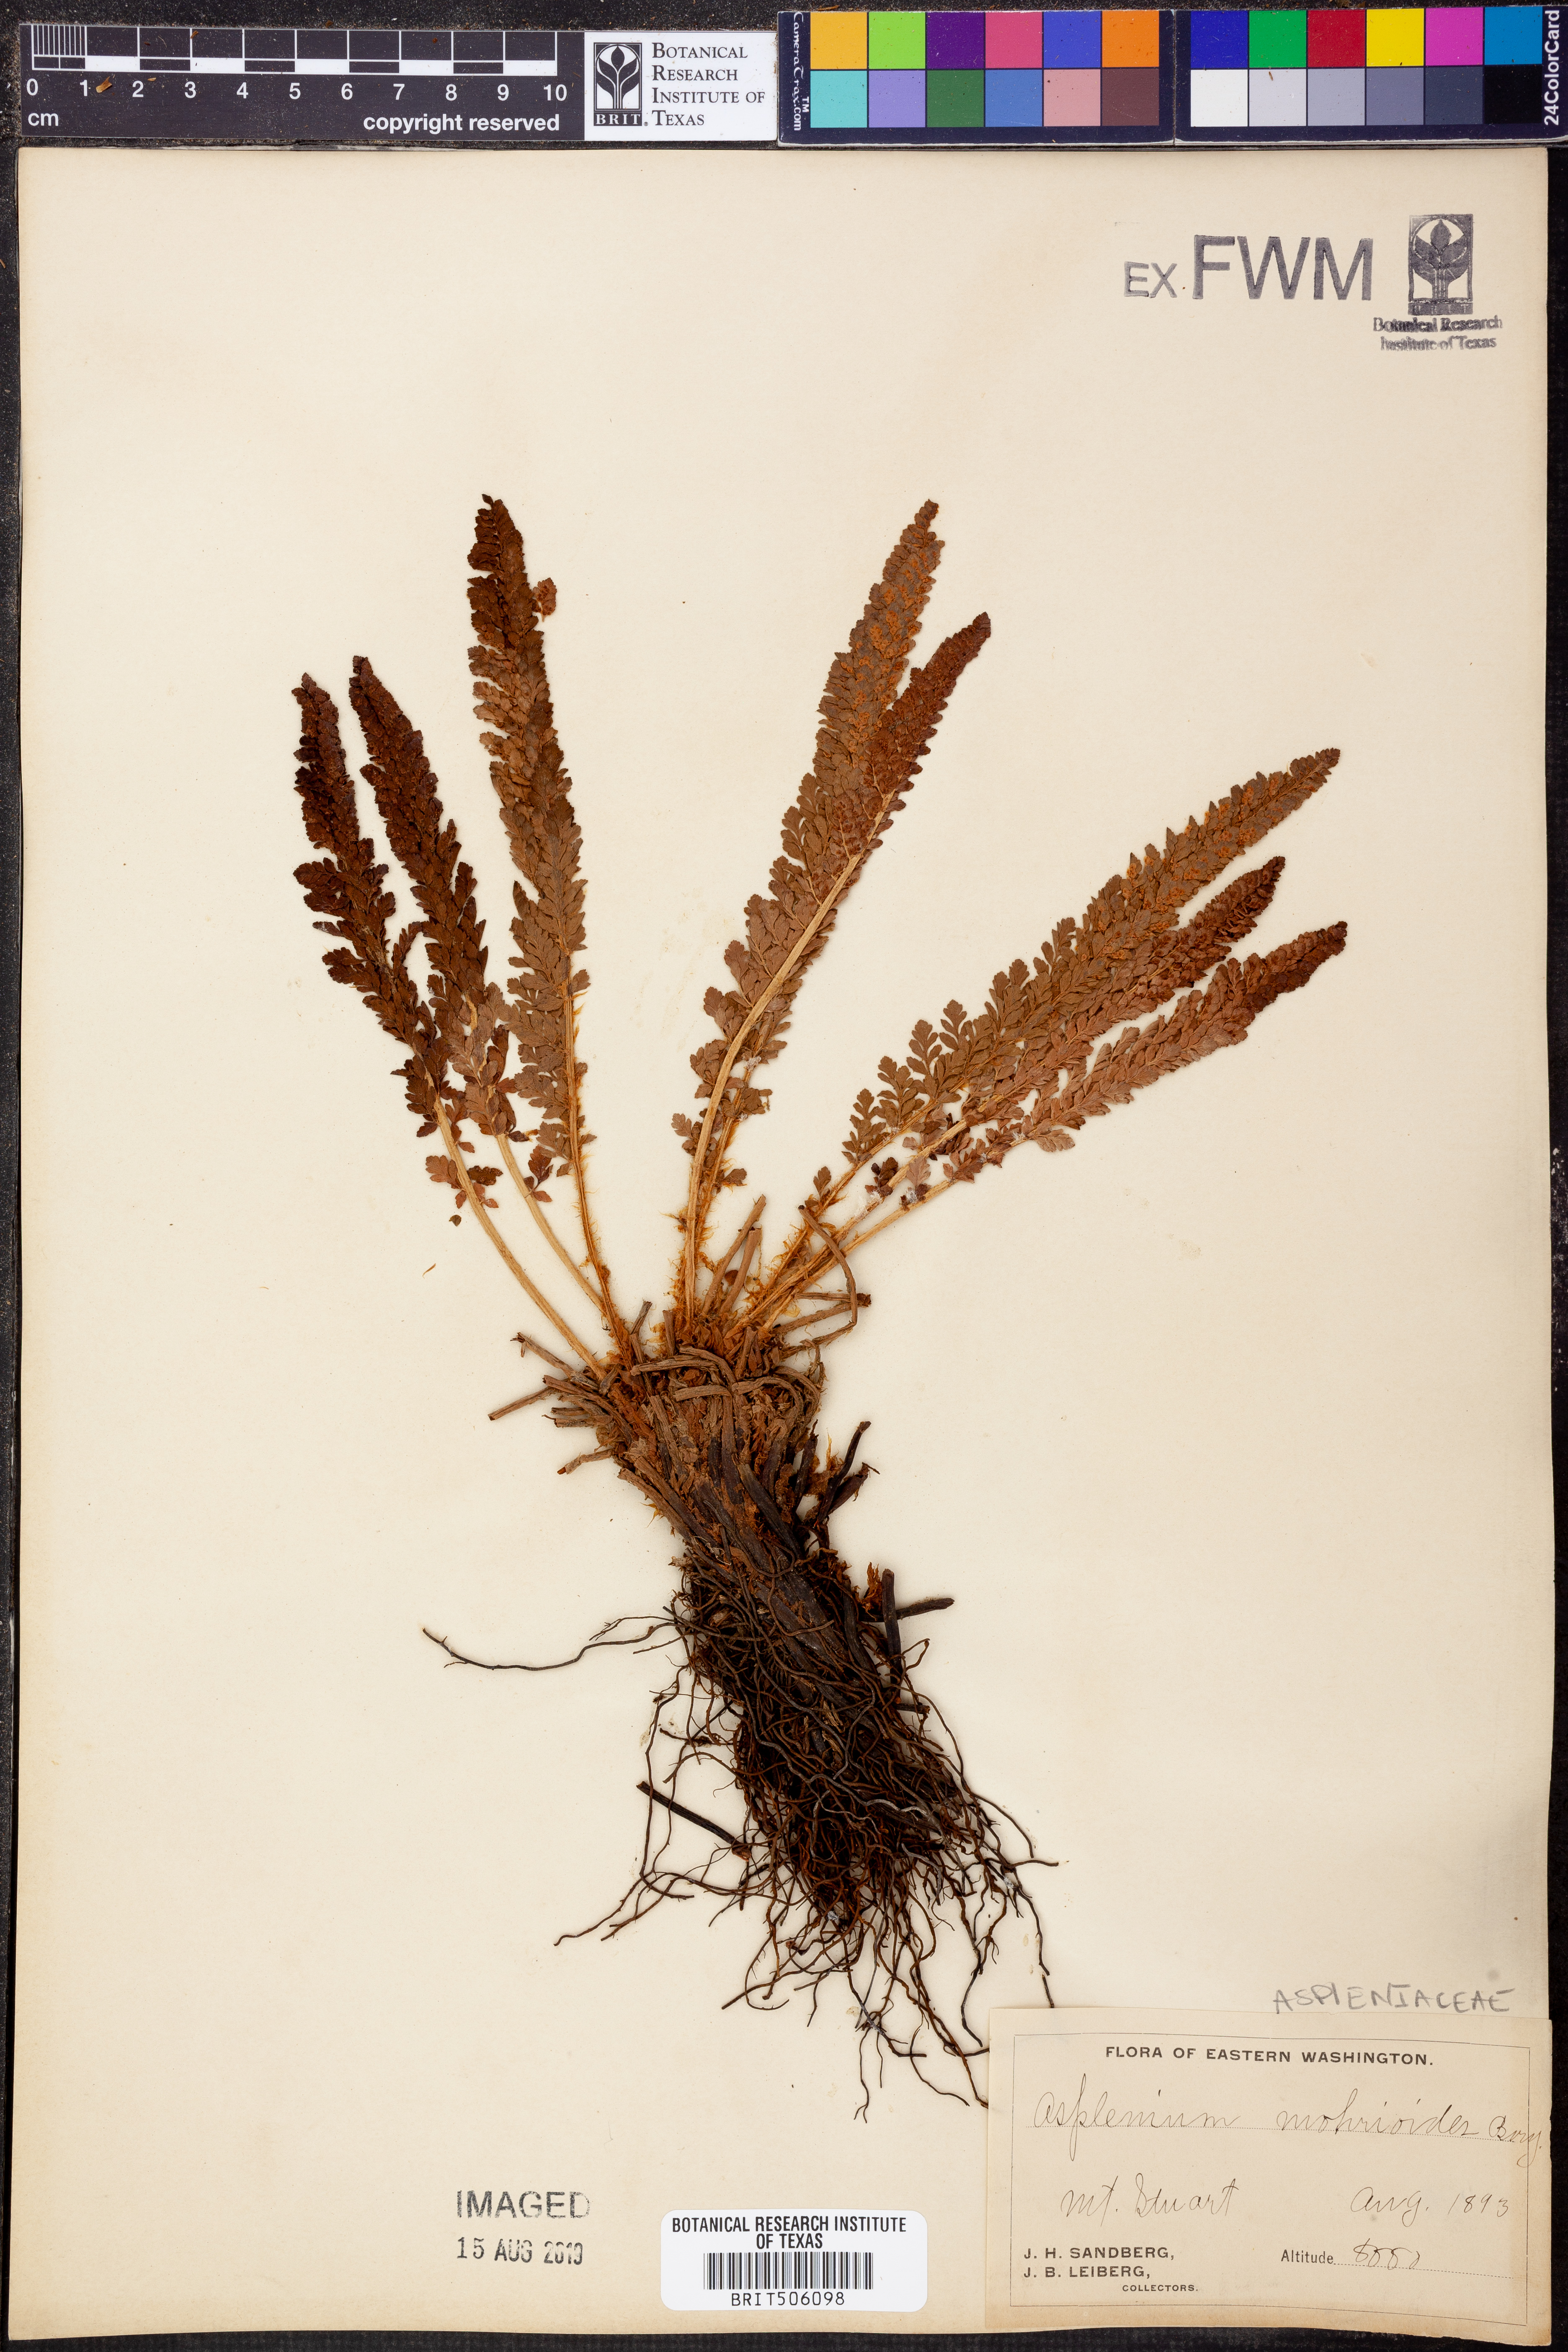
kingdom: Plantae
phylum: Tracheophyta
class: Polypodiopsida
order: Polypodiales
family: Aspleniaceae
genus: Asplenium
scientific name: Asplenium
